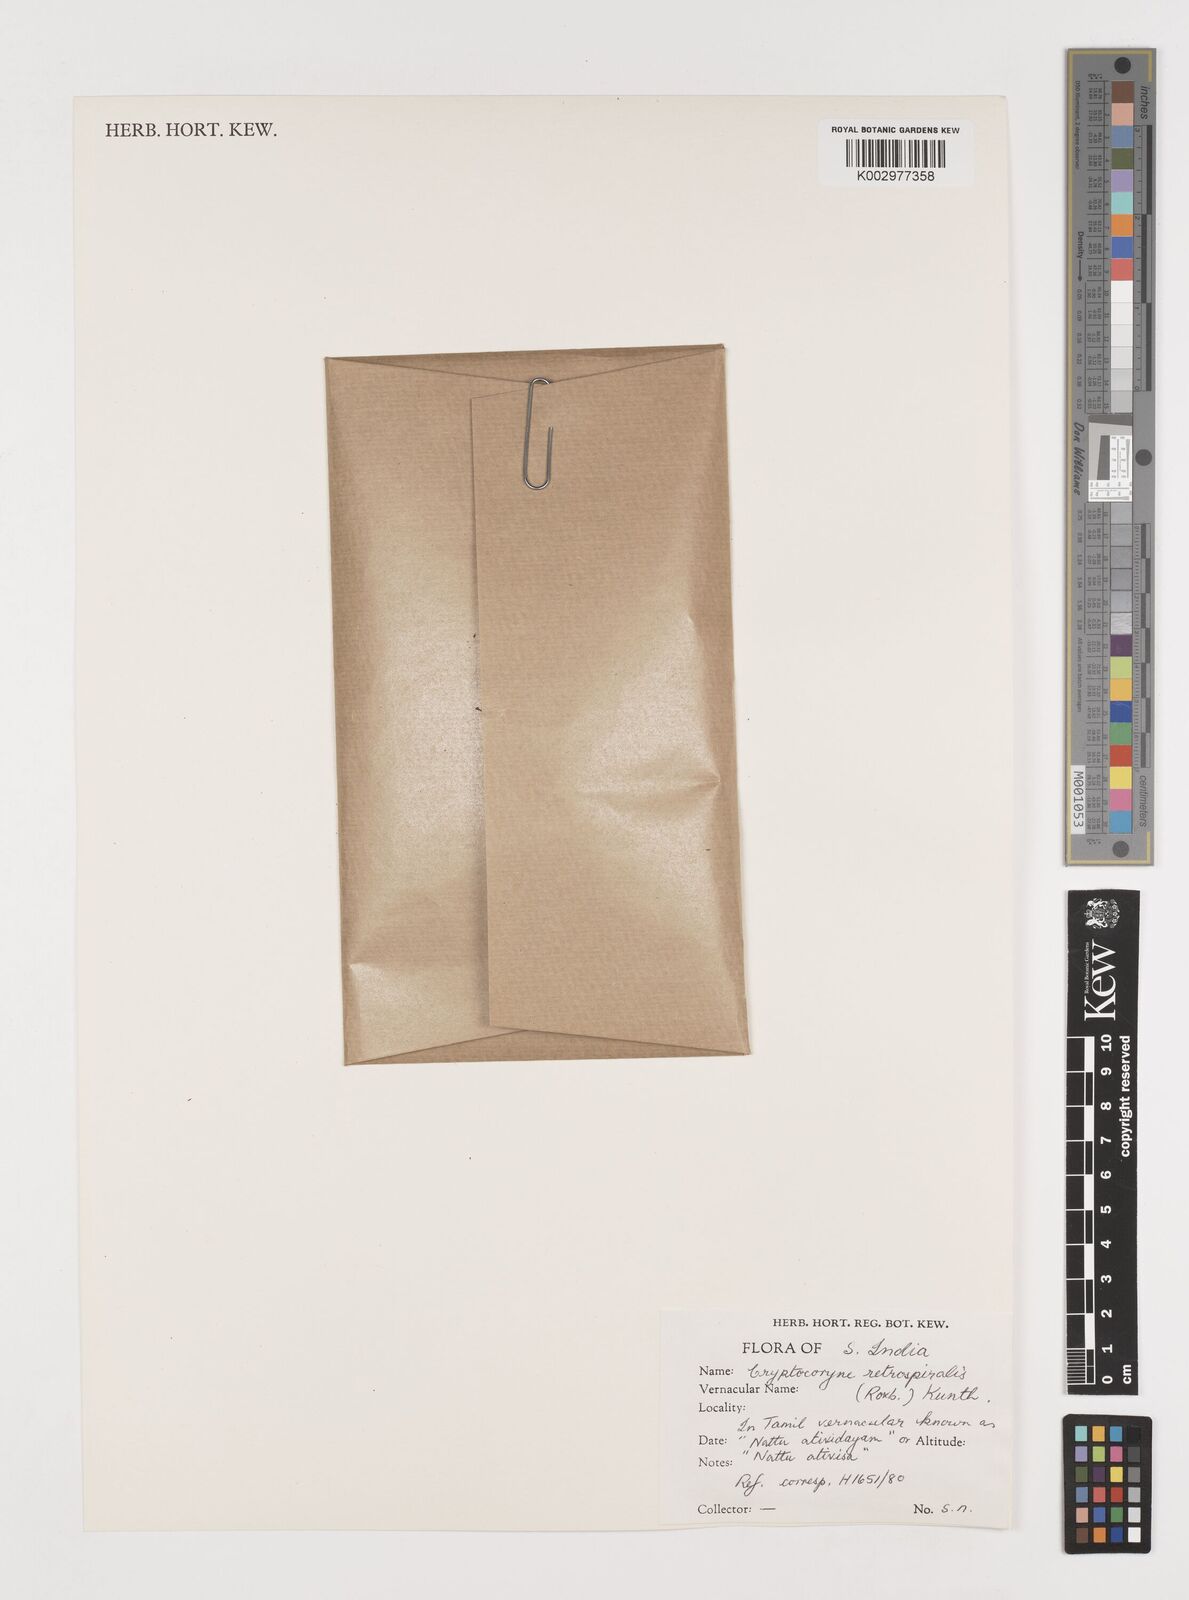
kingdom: Plantae
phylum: Tracheophyta
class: Liliopsida
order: Alismatales
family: Araceae
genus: Cryptocoryne
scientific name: Cryptocoryne retrospiralis
